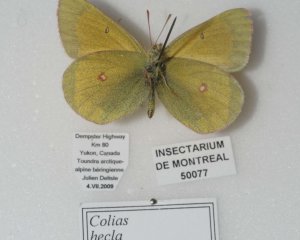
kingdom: Animalia
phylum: Arthropoda
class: Insecta
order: Lepidoptera
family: Pieridae
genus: Colias
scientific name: Colias hecla
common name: Hecla Sulphur
